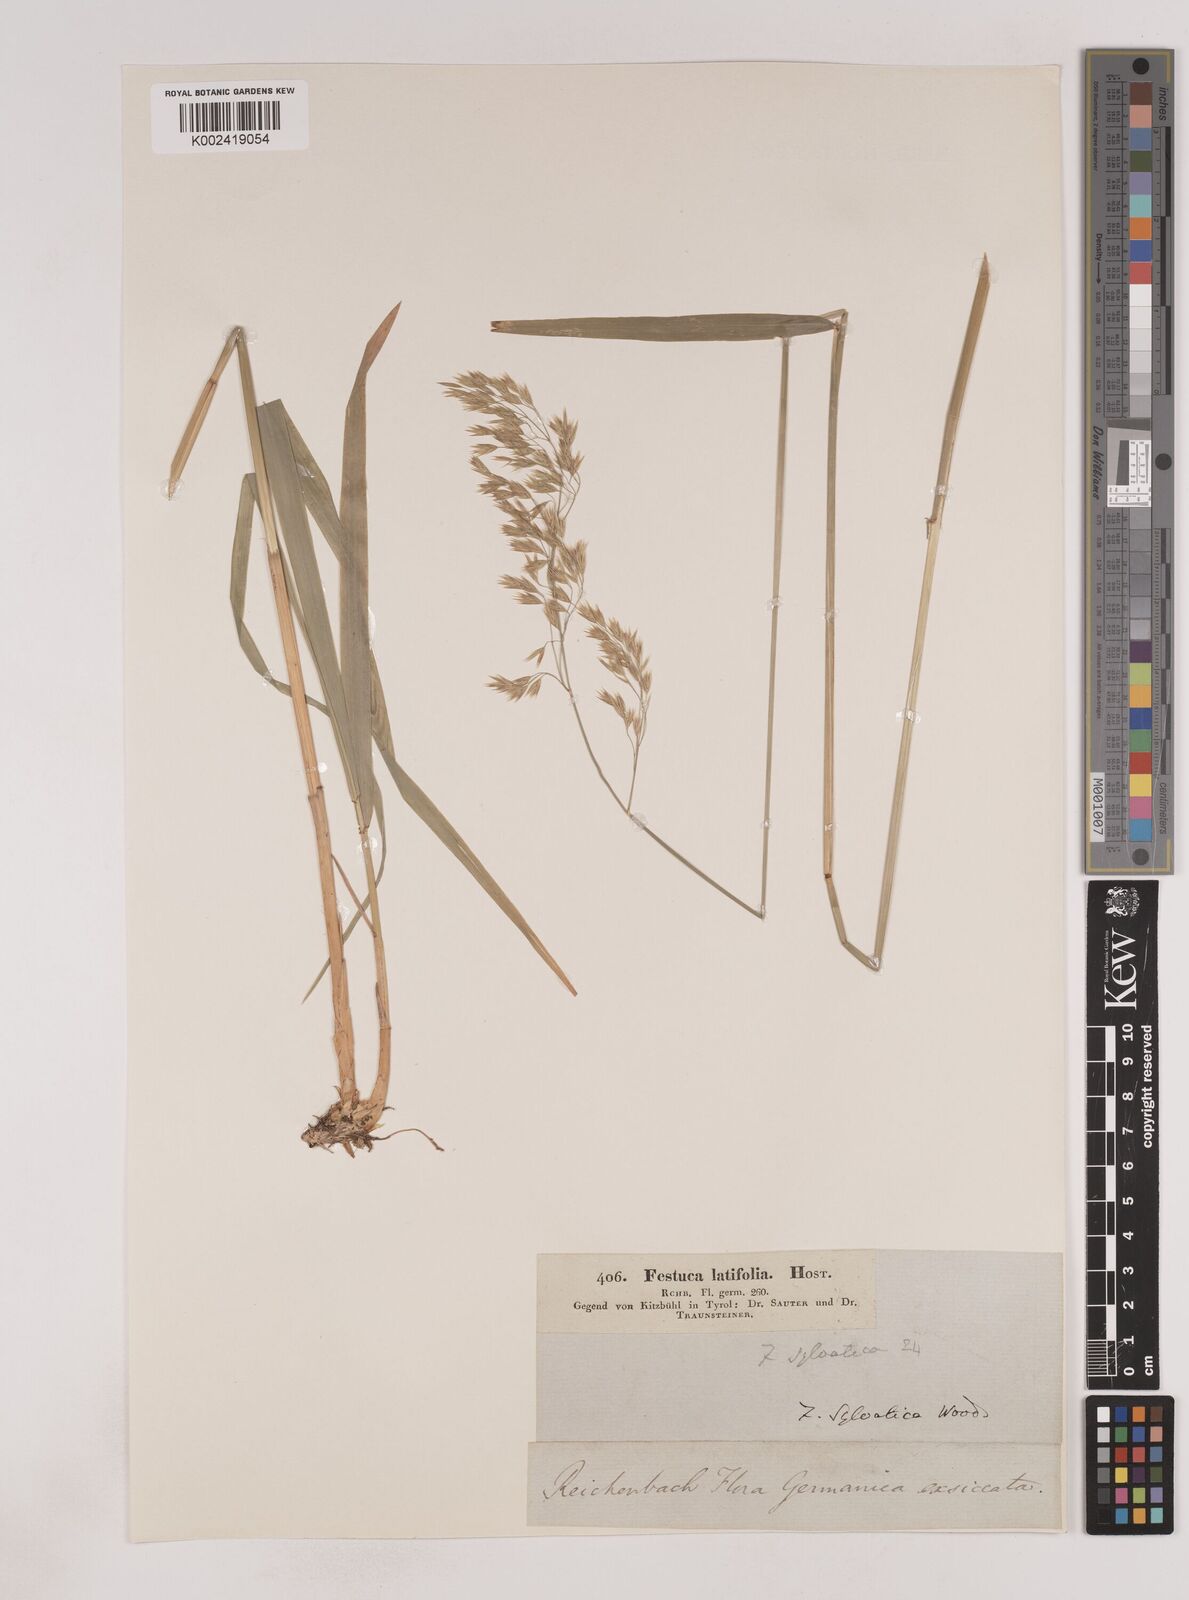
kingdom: Plantae
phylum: Tracheophyta
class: Liliopsida
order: Poales
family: Poaceae
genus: Festuca
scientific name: Festuca drymeja
